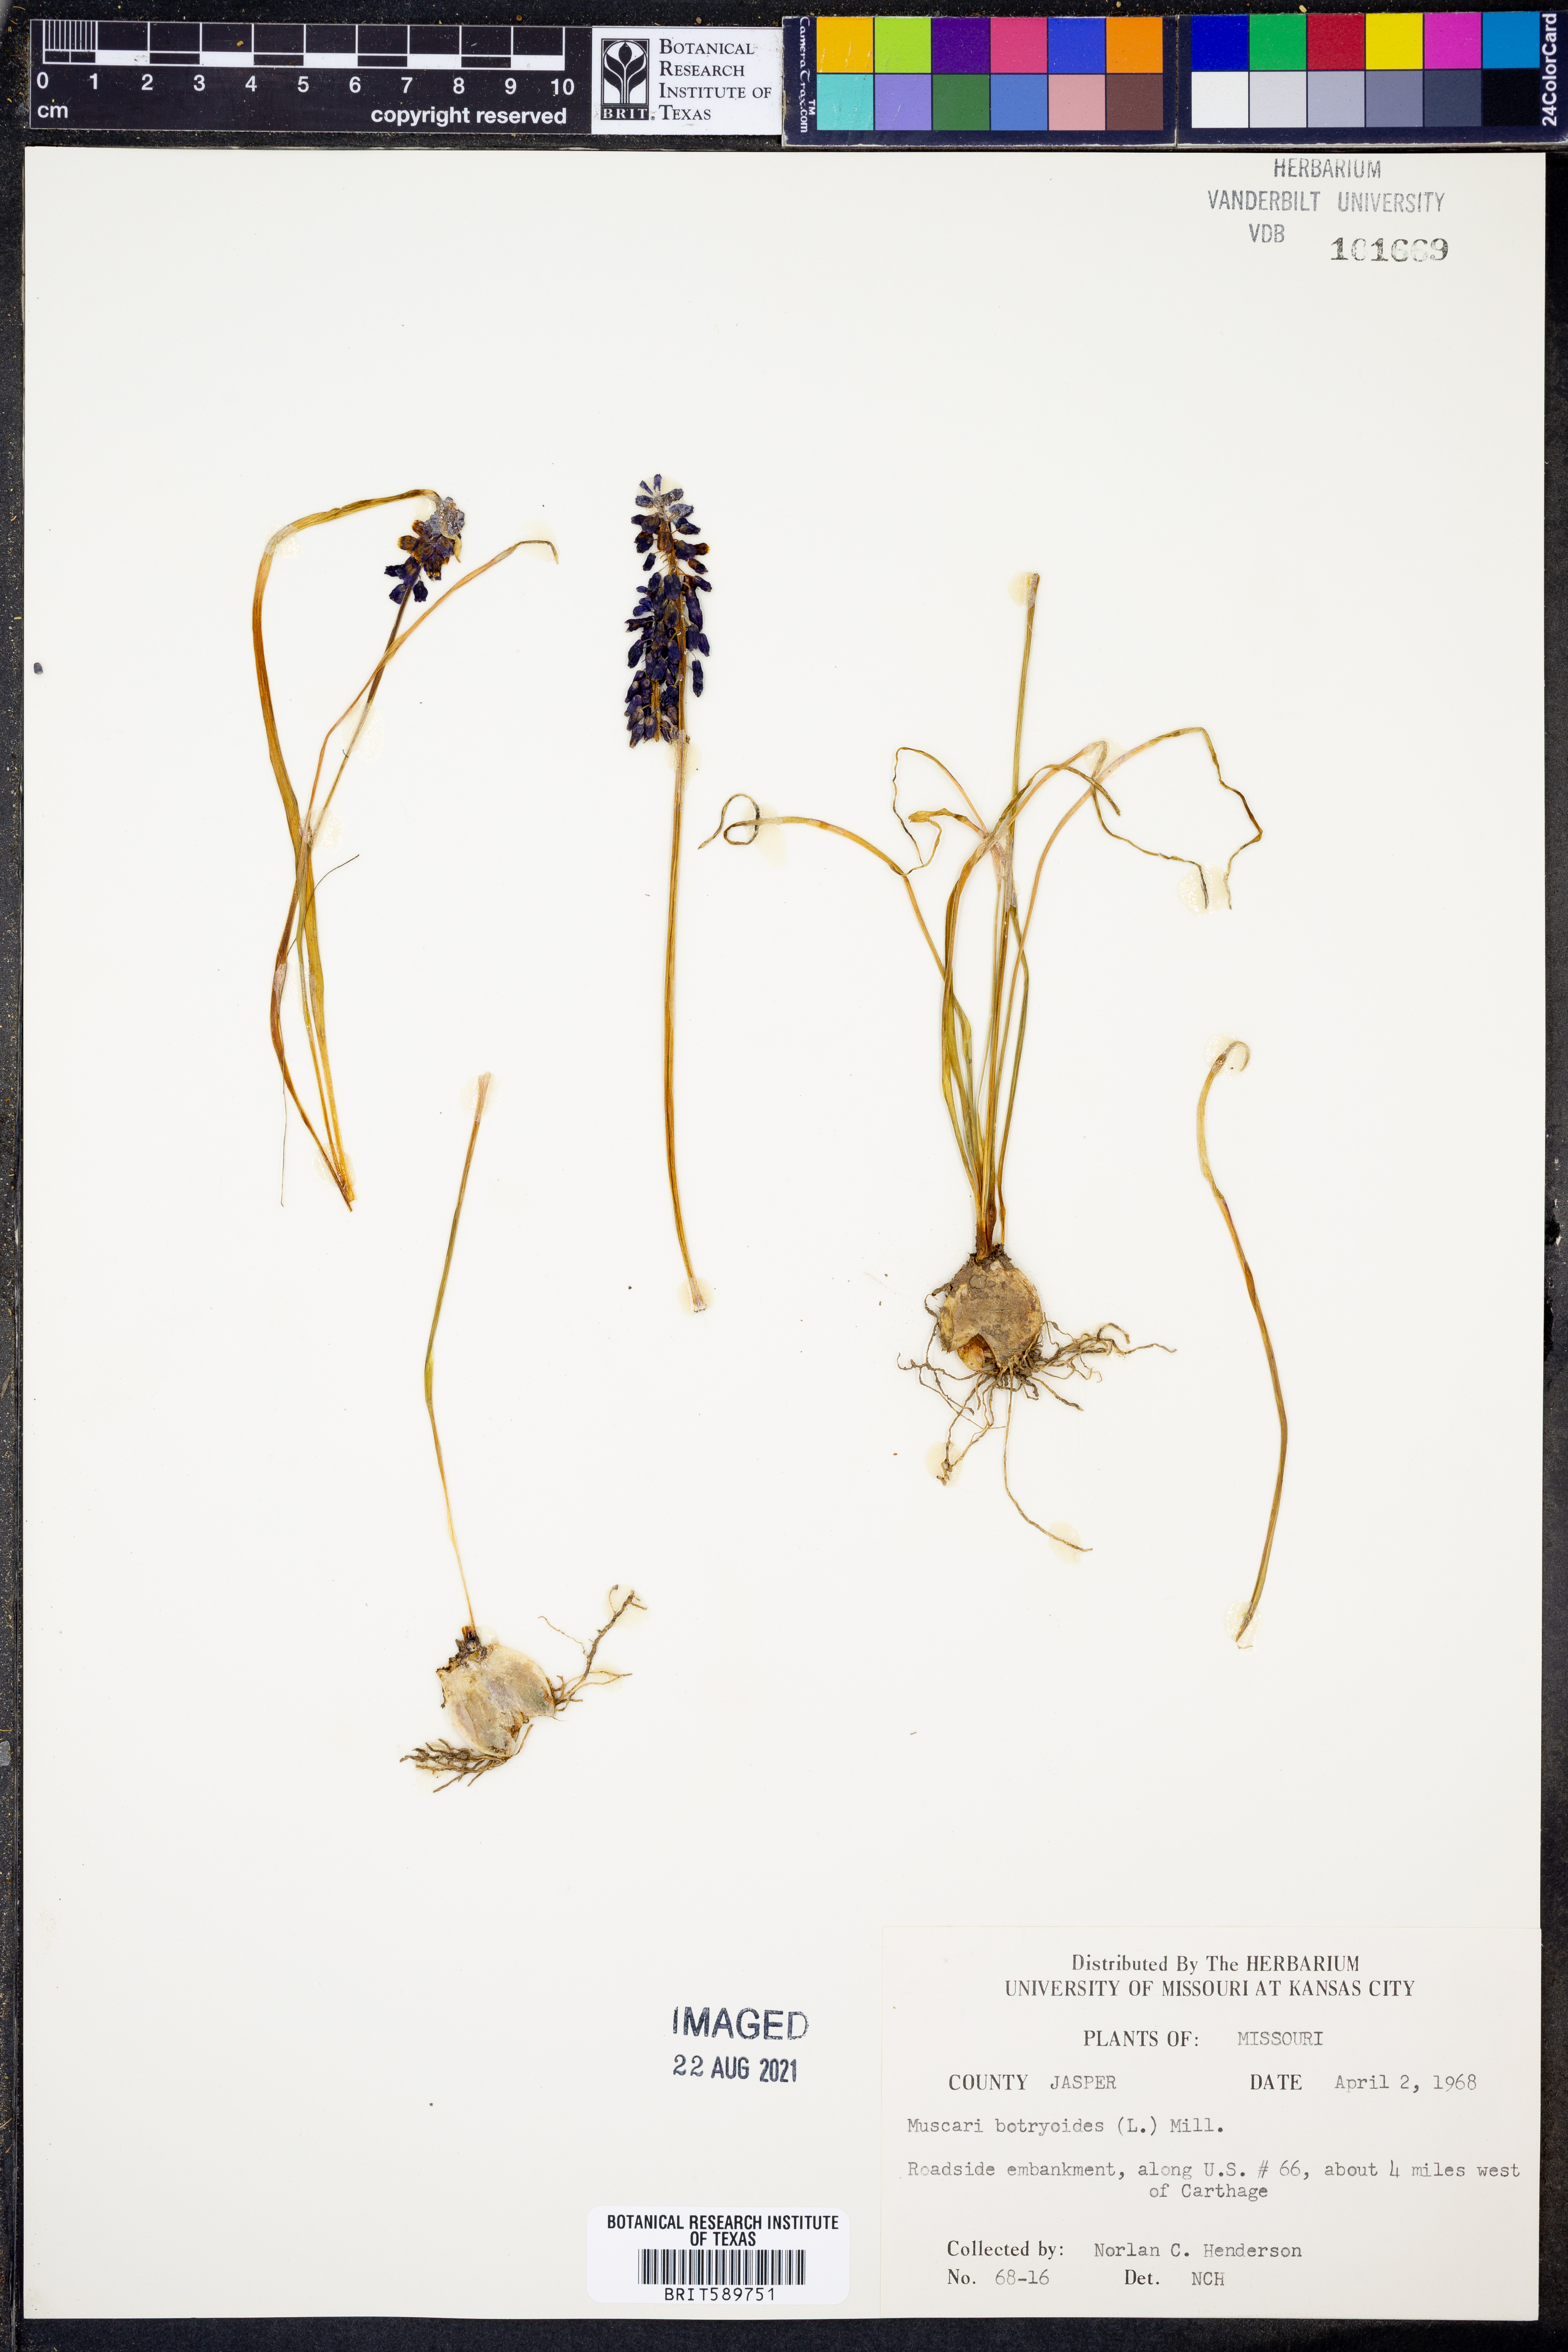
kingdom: Plantae
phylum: Tracheophyta
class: Liliopsida
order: Asparagales
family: Asparagaceae
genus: Muscari
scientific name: Muscari botryoides
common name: Compact grape-hyacinth
